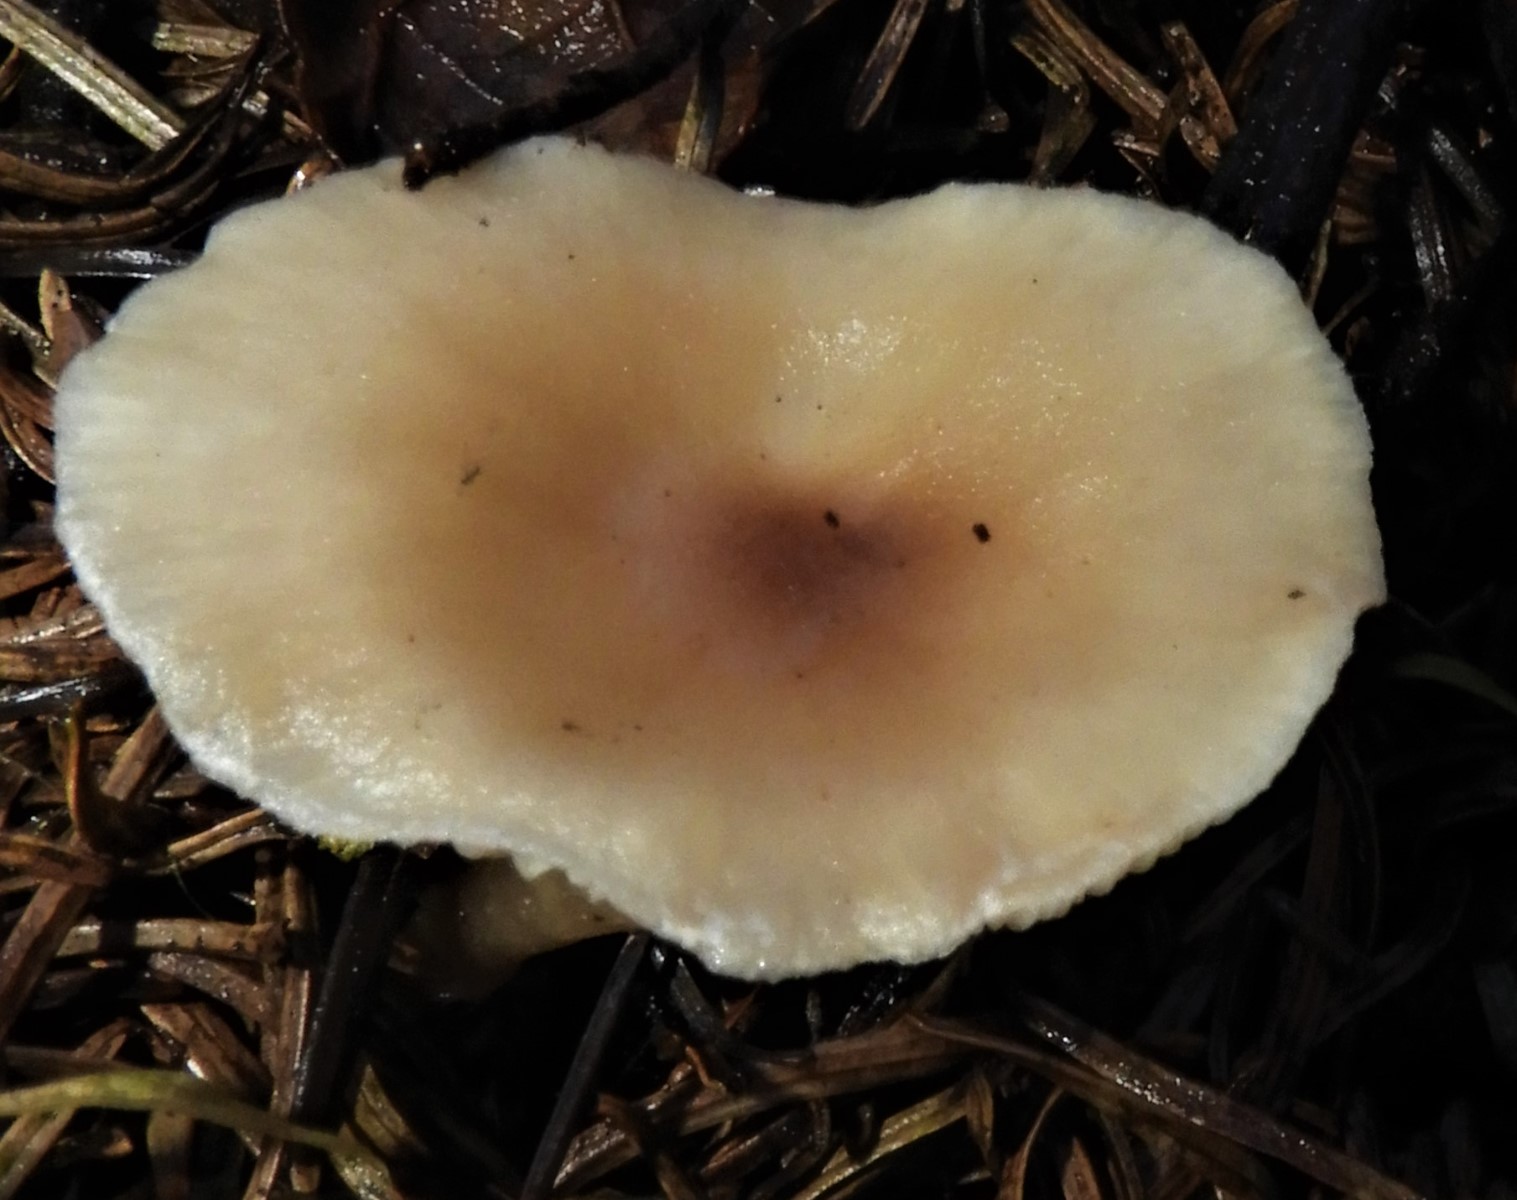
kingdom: Fungi
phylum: Basidiomycota
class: Agaricomycetes
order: Agaricales
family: Tricholomataceae
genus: Clitocybe
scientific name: Clitocybe
